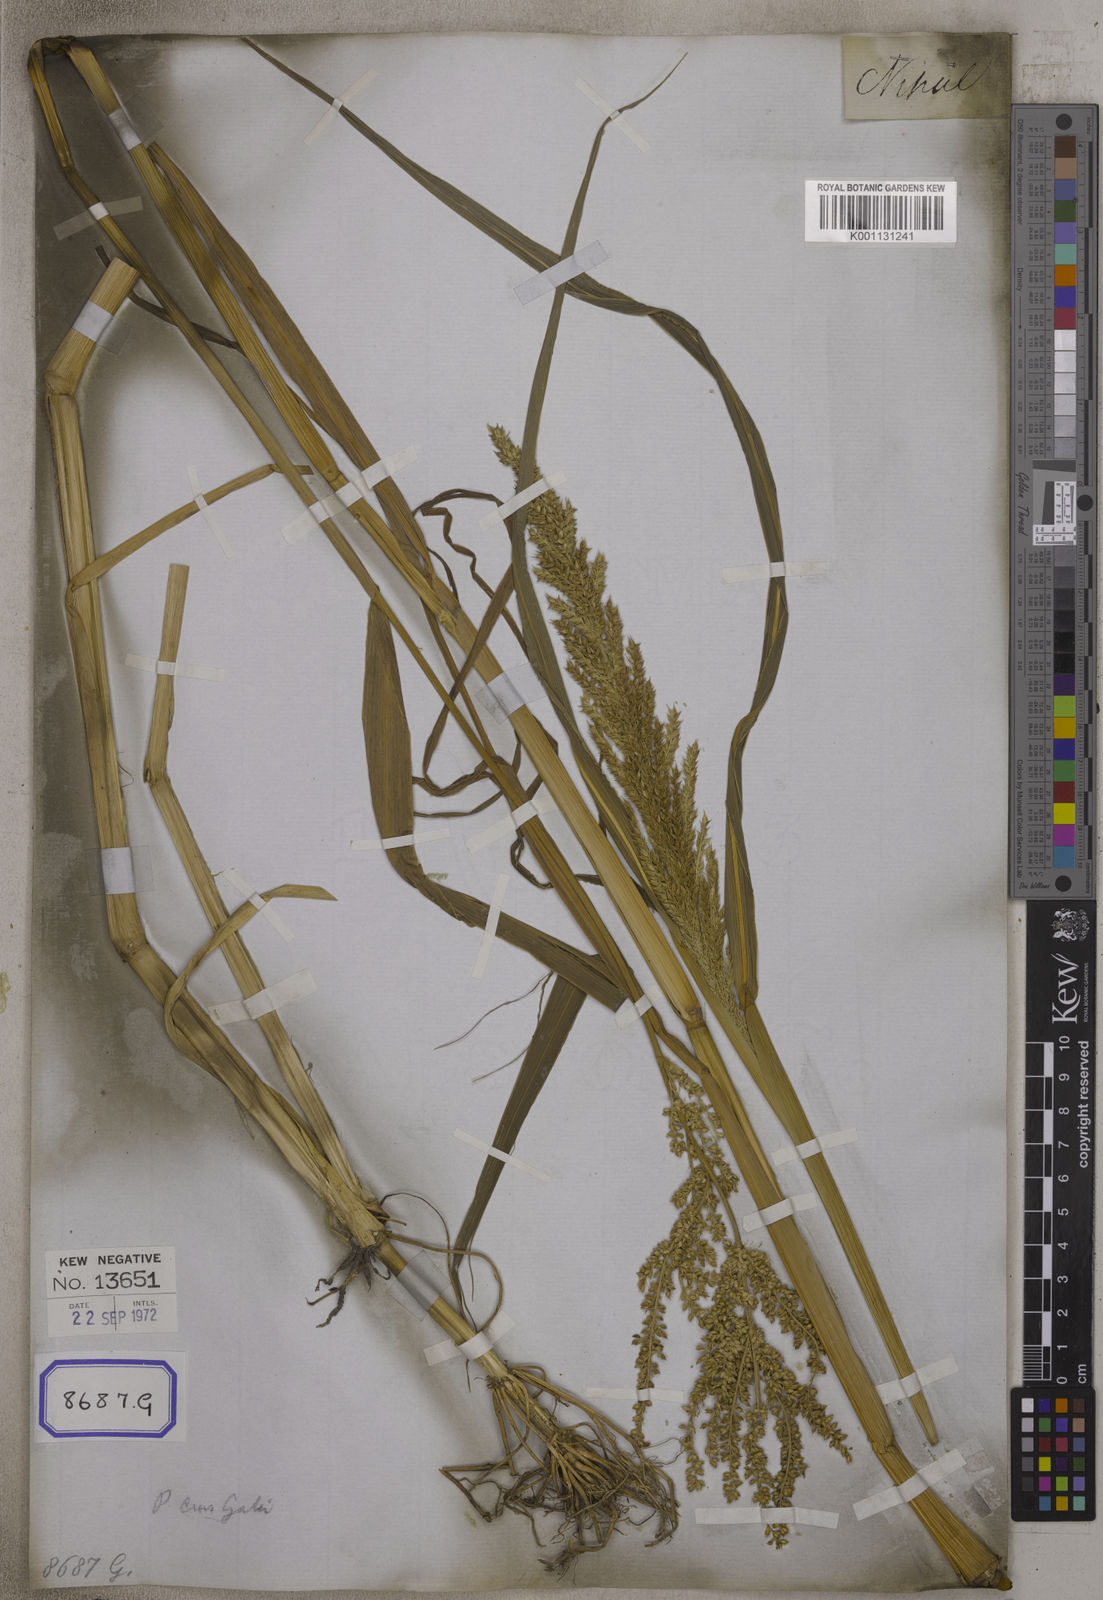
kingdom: Plantae
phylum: Tracheophyta
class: Liliopsida
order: Poales
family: Poaceae
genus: Echinochloa
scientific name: Echinochloa crus-galli
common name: Cockspur
